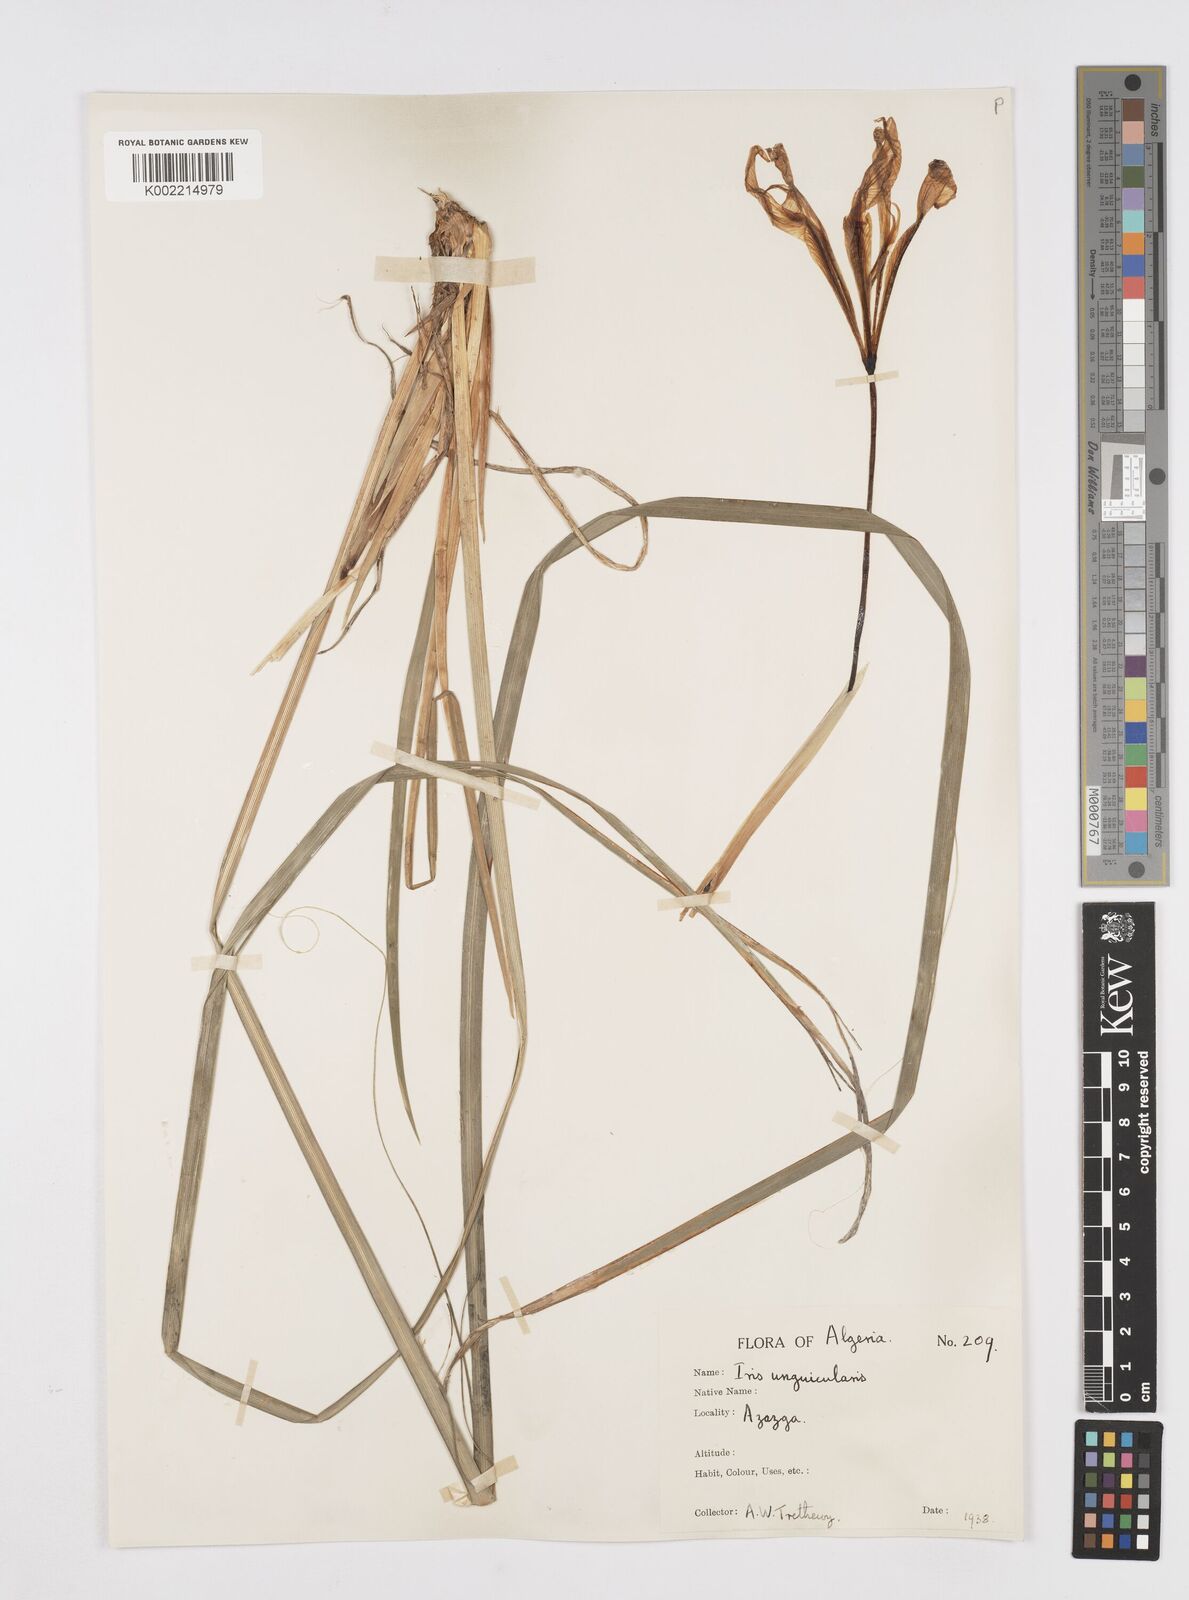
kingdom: Plantae
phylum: Tracheophyta
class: Liliopsida
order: Asparagales
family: Iridaceae
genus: Iris
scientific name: Iris unguicularis
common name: Algerian iris
